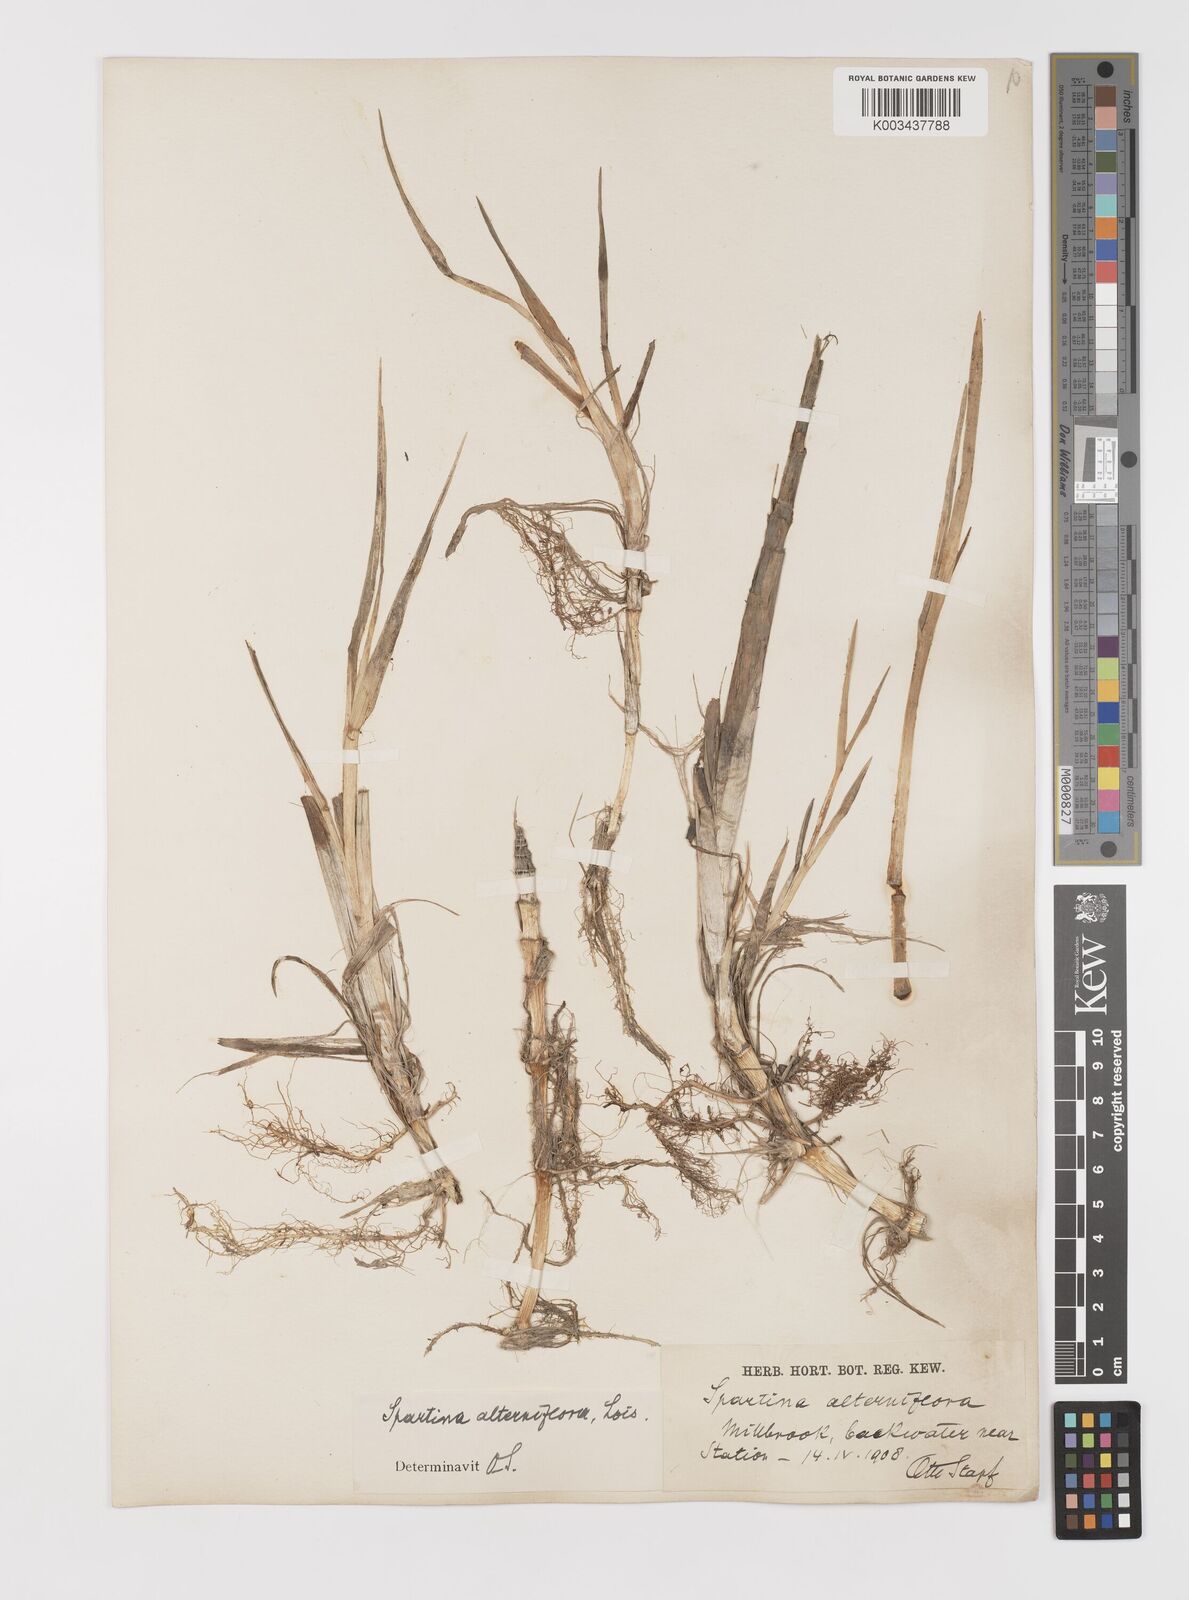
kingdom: Plantae
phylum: Tracheophyta
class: Liliopsida
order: Poales
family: Poaceae
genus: Sporobolus
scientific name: Sporobolus alterniflorus
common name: Atlantic cordgrass
